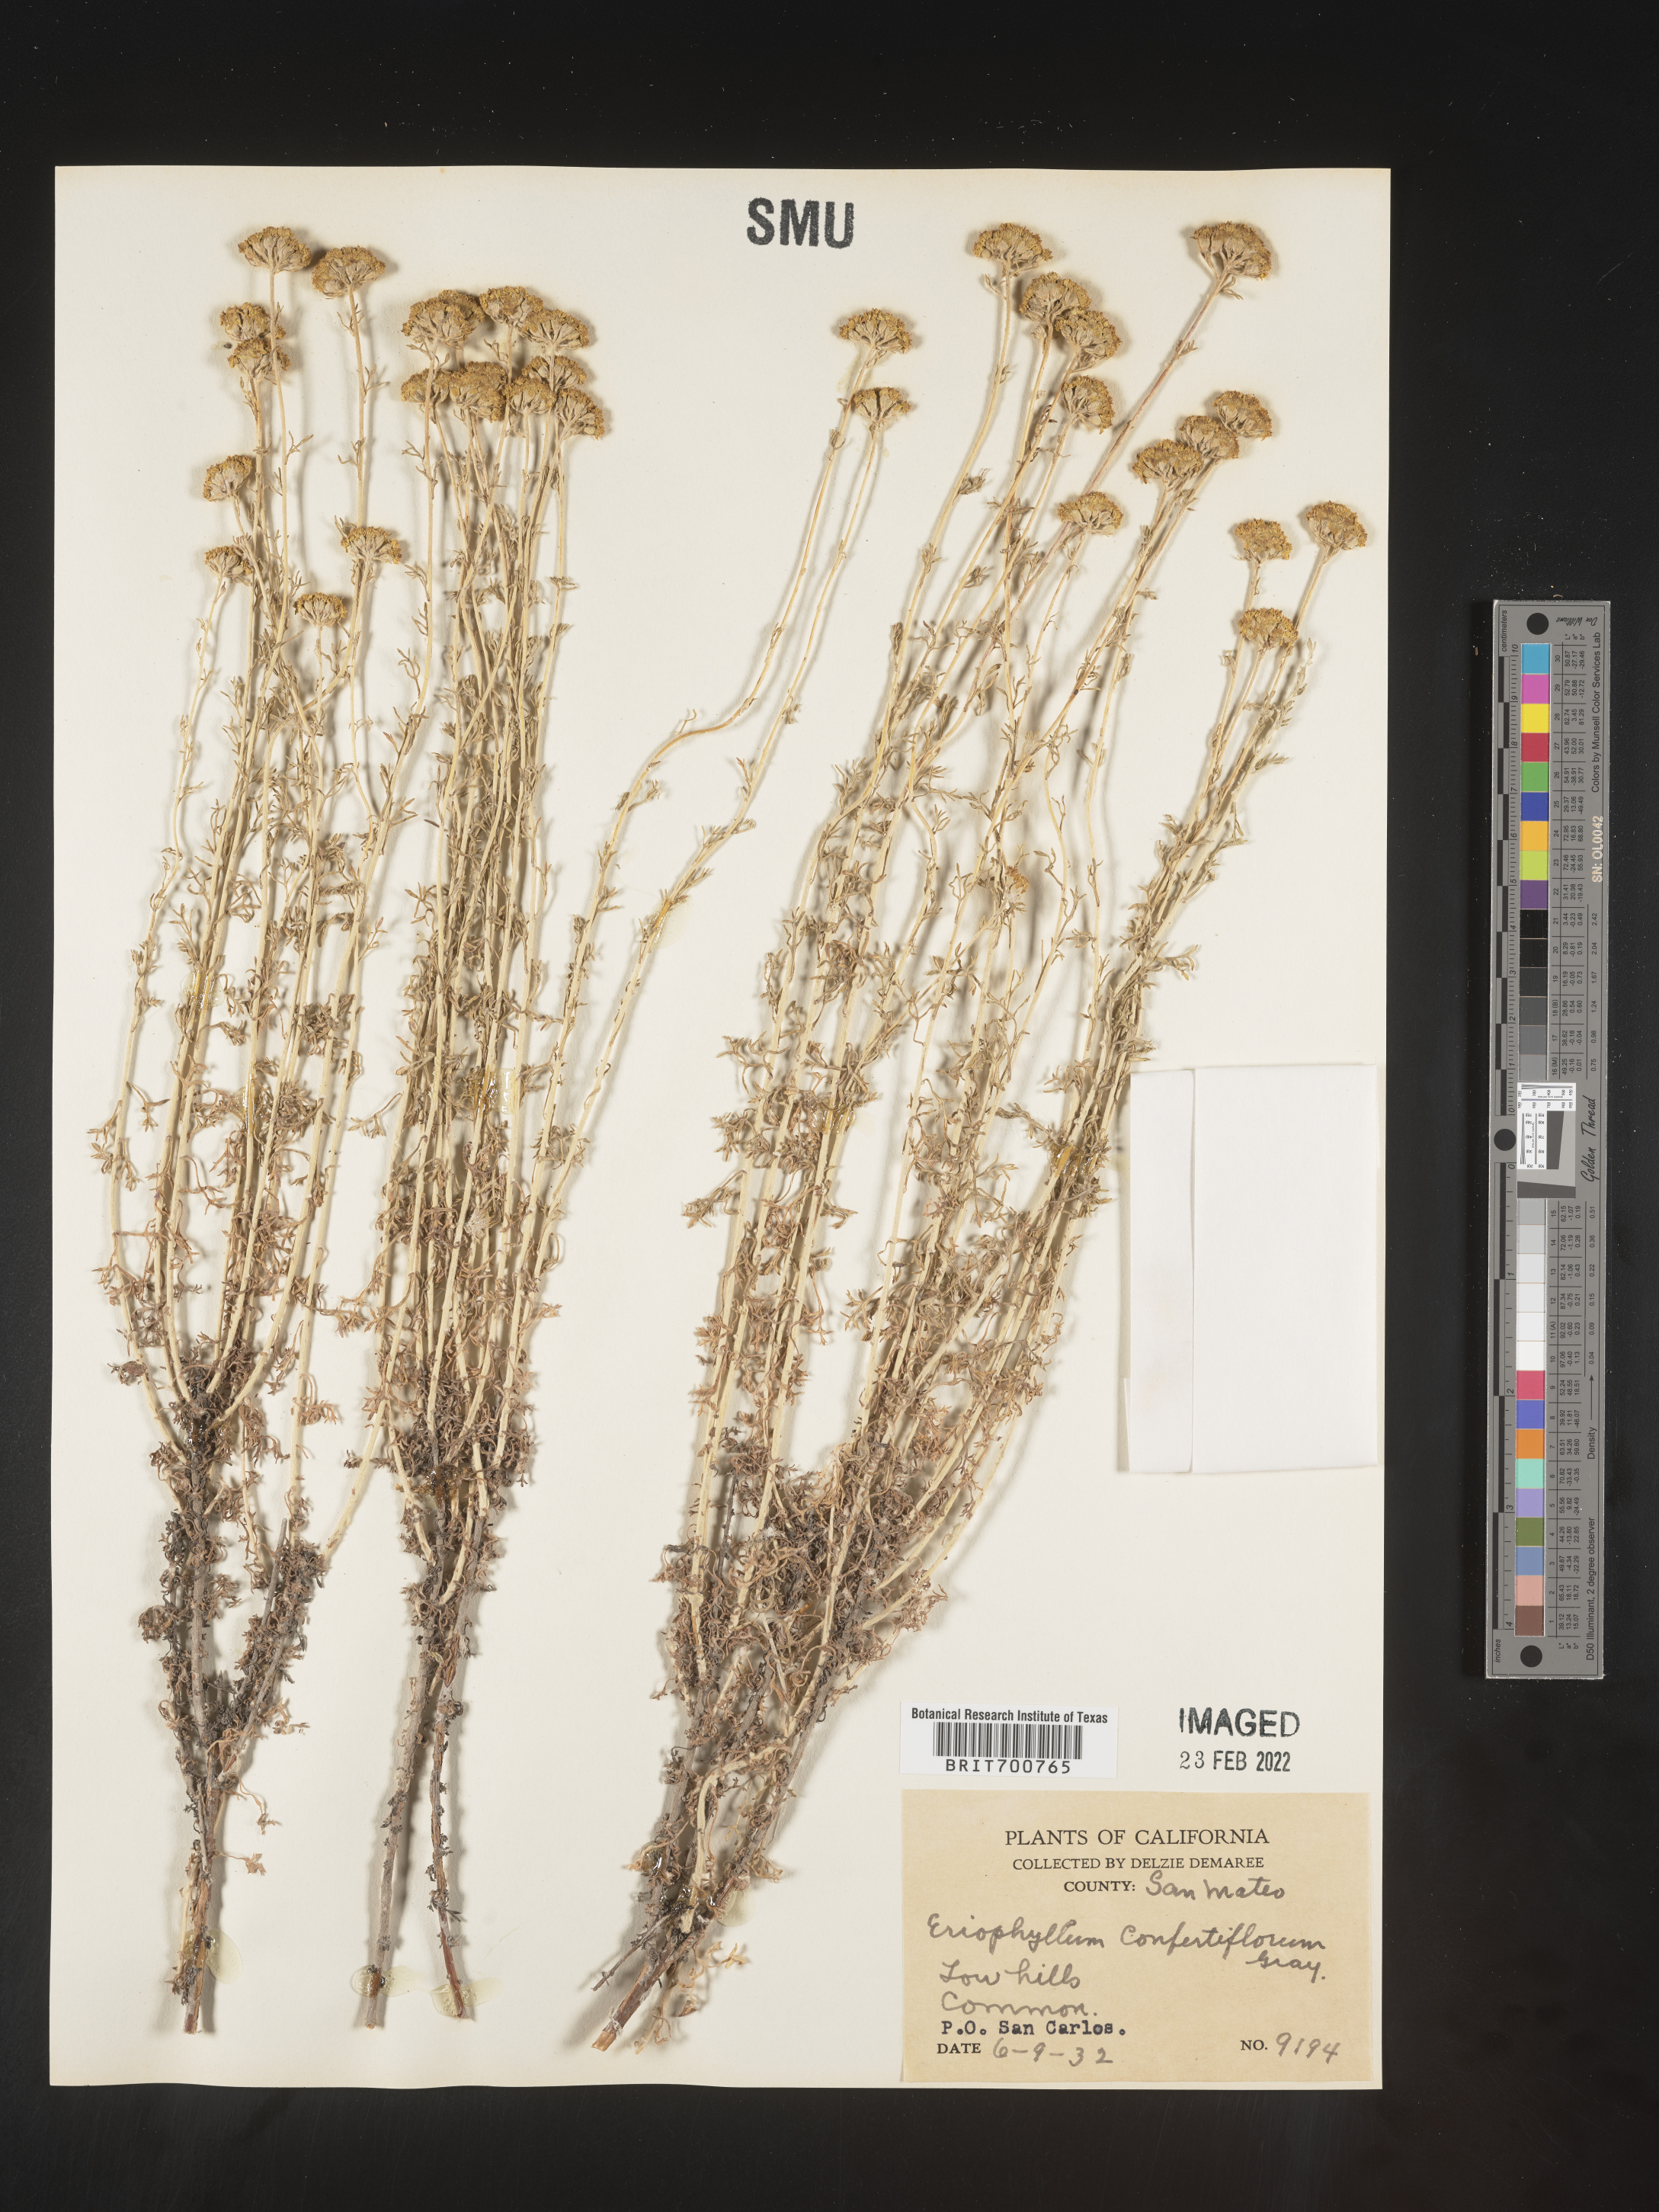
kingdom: Plantae
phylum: Tracheophyta
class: Magnoliopsida
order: Asterales
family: Asteraceae
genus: Eriophyllum
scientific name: Eriophyllum confertiflorum
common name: Golden-yarrow
